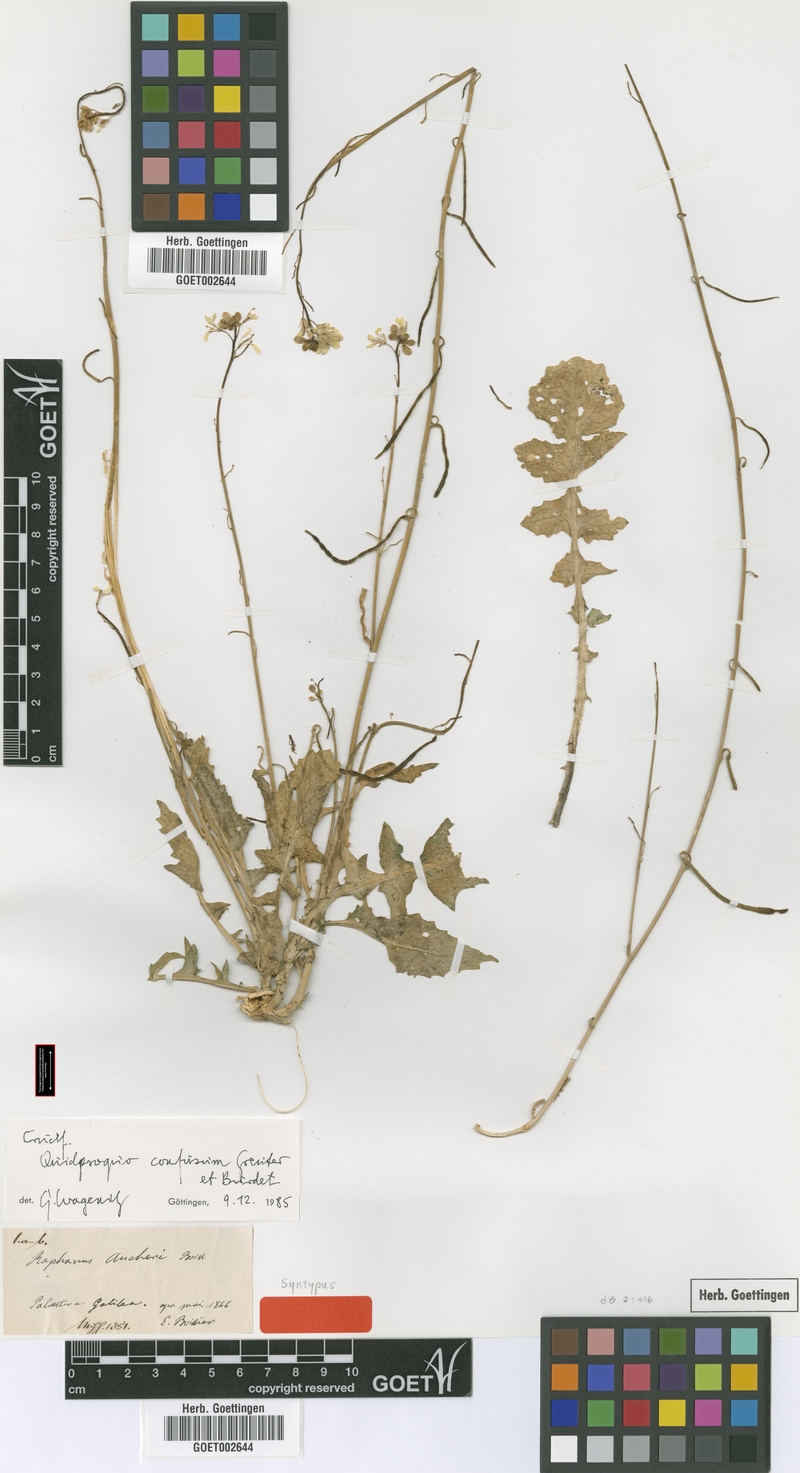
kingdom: Plantae
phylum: Tracheophyta
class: Magnoliopsida
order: Brassicales
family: Brassicaceae
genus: Raphanus
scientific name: Raphanus confusus
